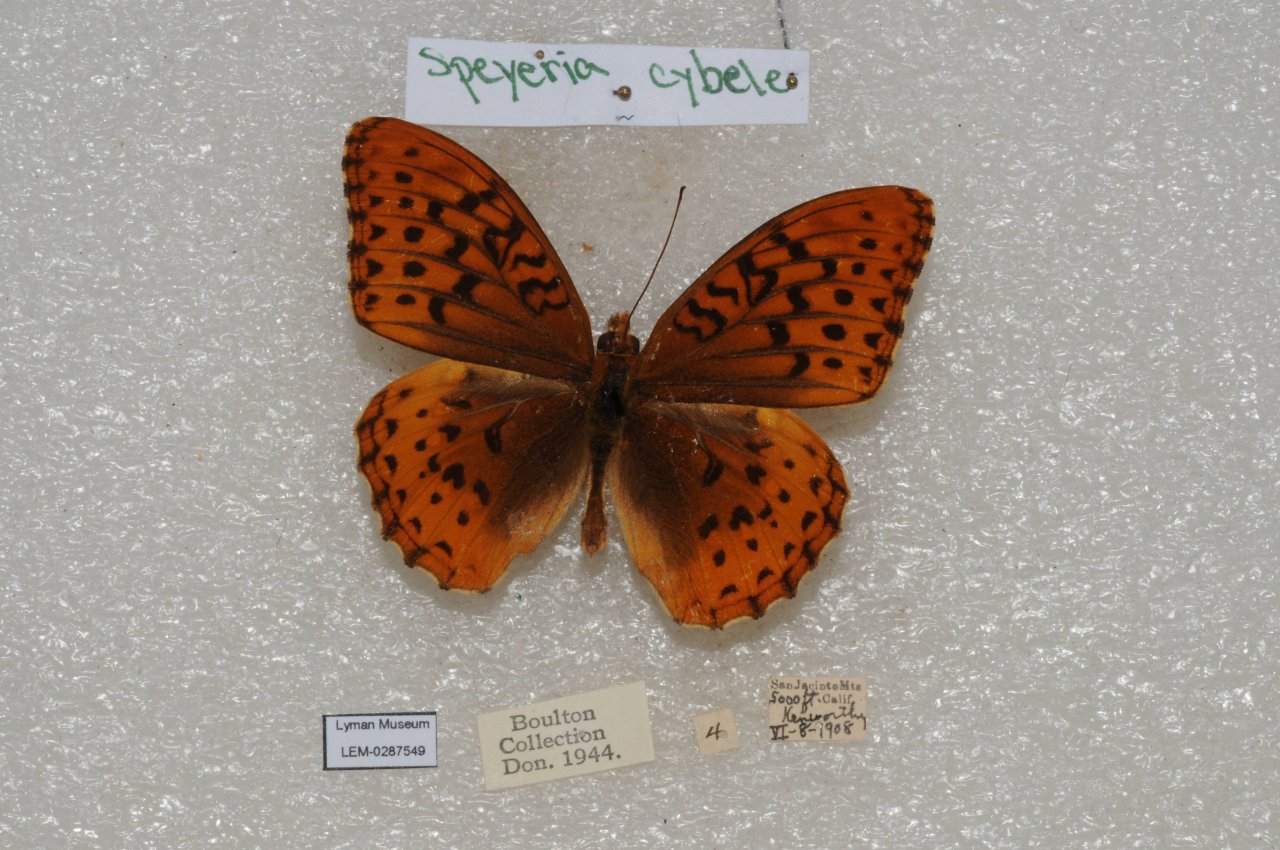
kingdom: Animalia
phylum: Arthropoda
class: Insecta
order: Lepidoptera
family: Nymphalidae
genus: Speyeria
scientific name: Speyeria cybele
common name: Great Spangled Fritillary
